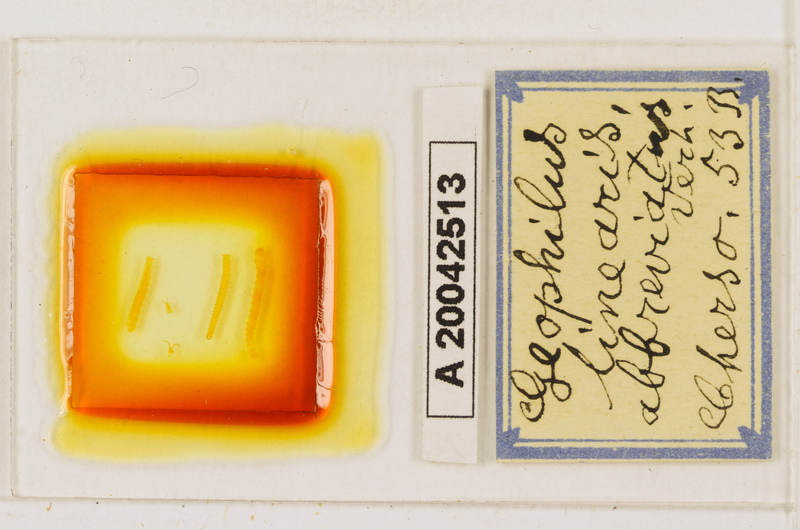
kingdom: Animalia
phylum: Arthropoda
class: Chilopoda
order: Geophilomorpha
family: Geophilidae
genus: Stenotaenia
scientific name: Stenotaenia sorrentina
